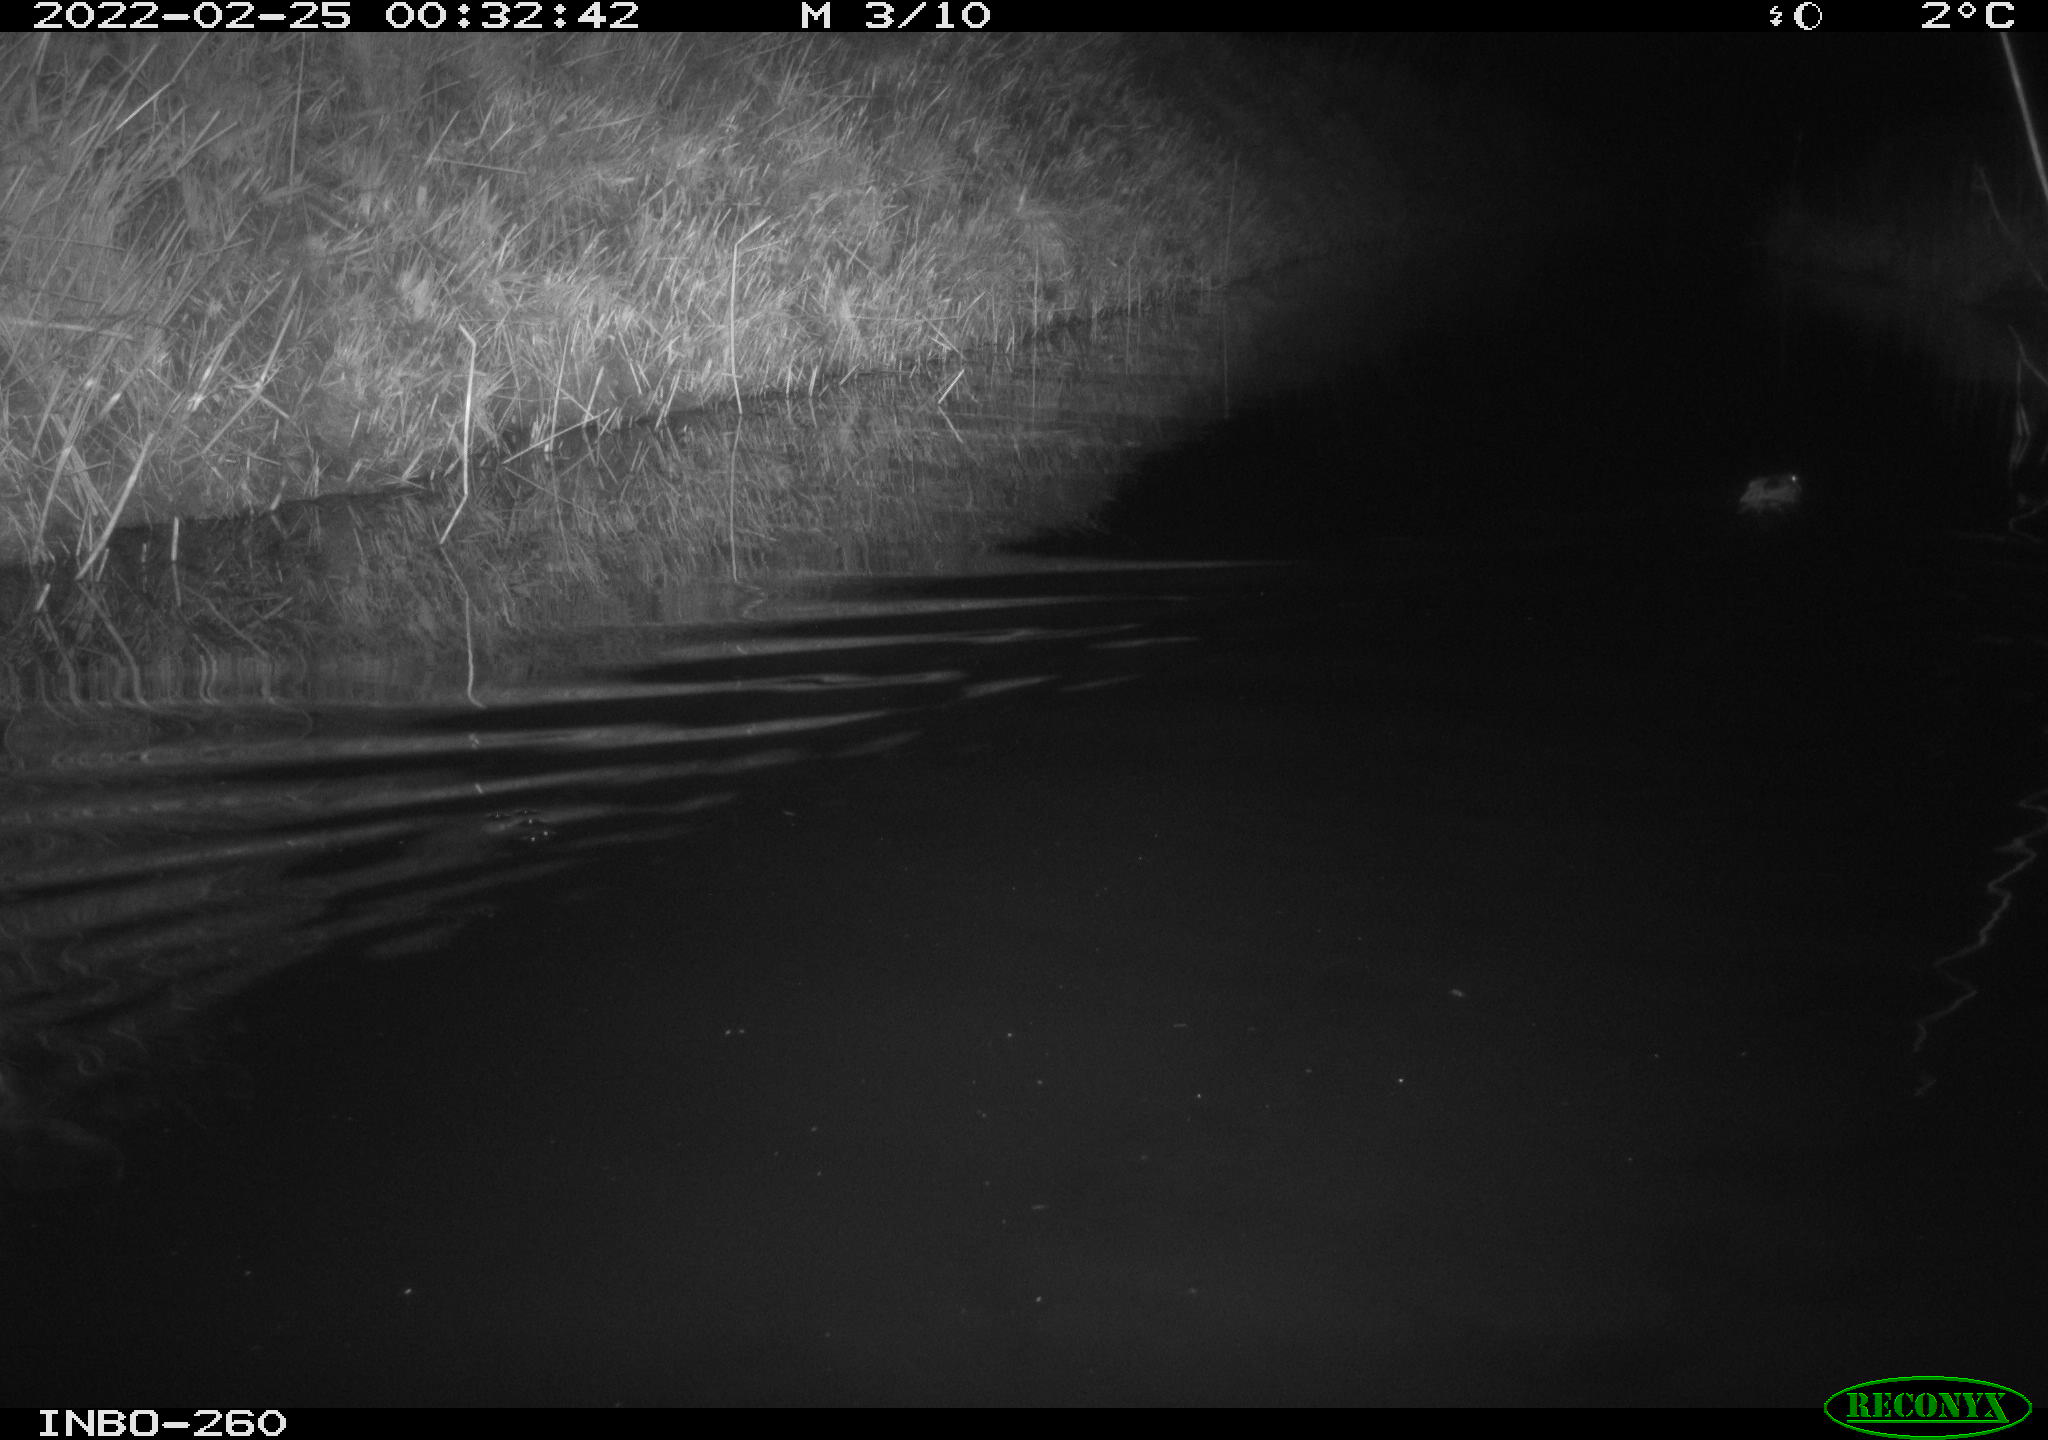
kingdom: Animalia
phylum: Chordata
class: Mammalia
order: Rodentia
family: Cricetidae
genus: Ondatra
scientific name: Ondatra zibethicus
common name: Muskrat
